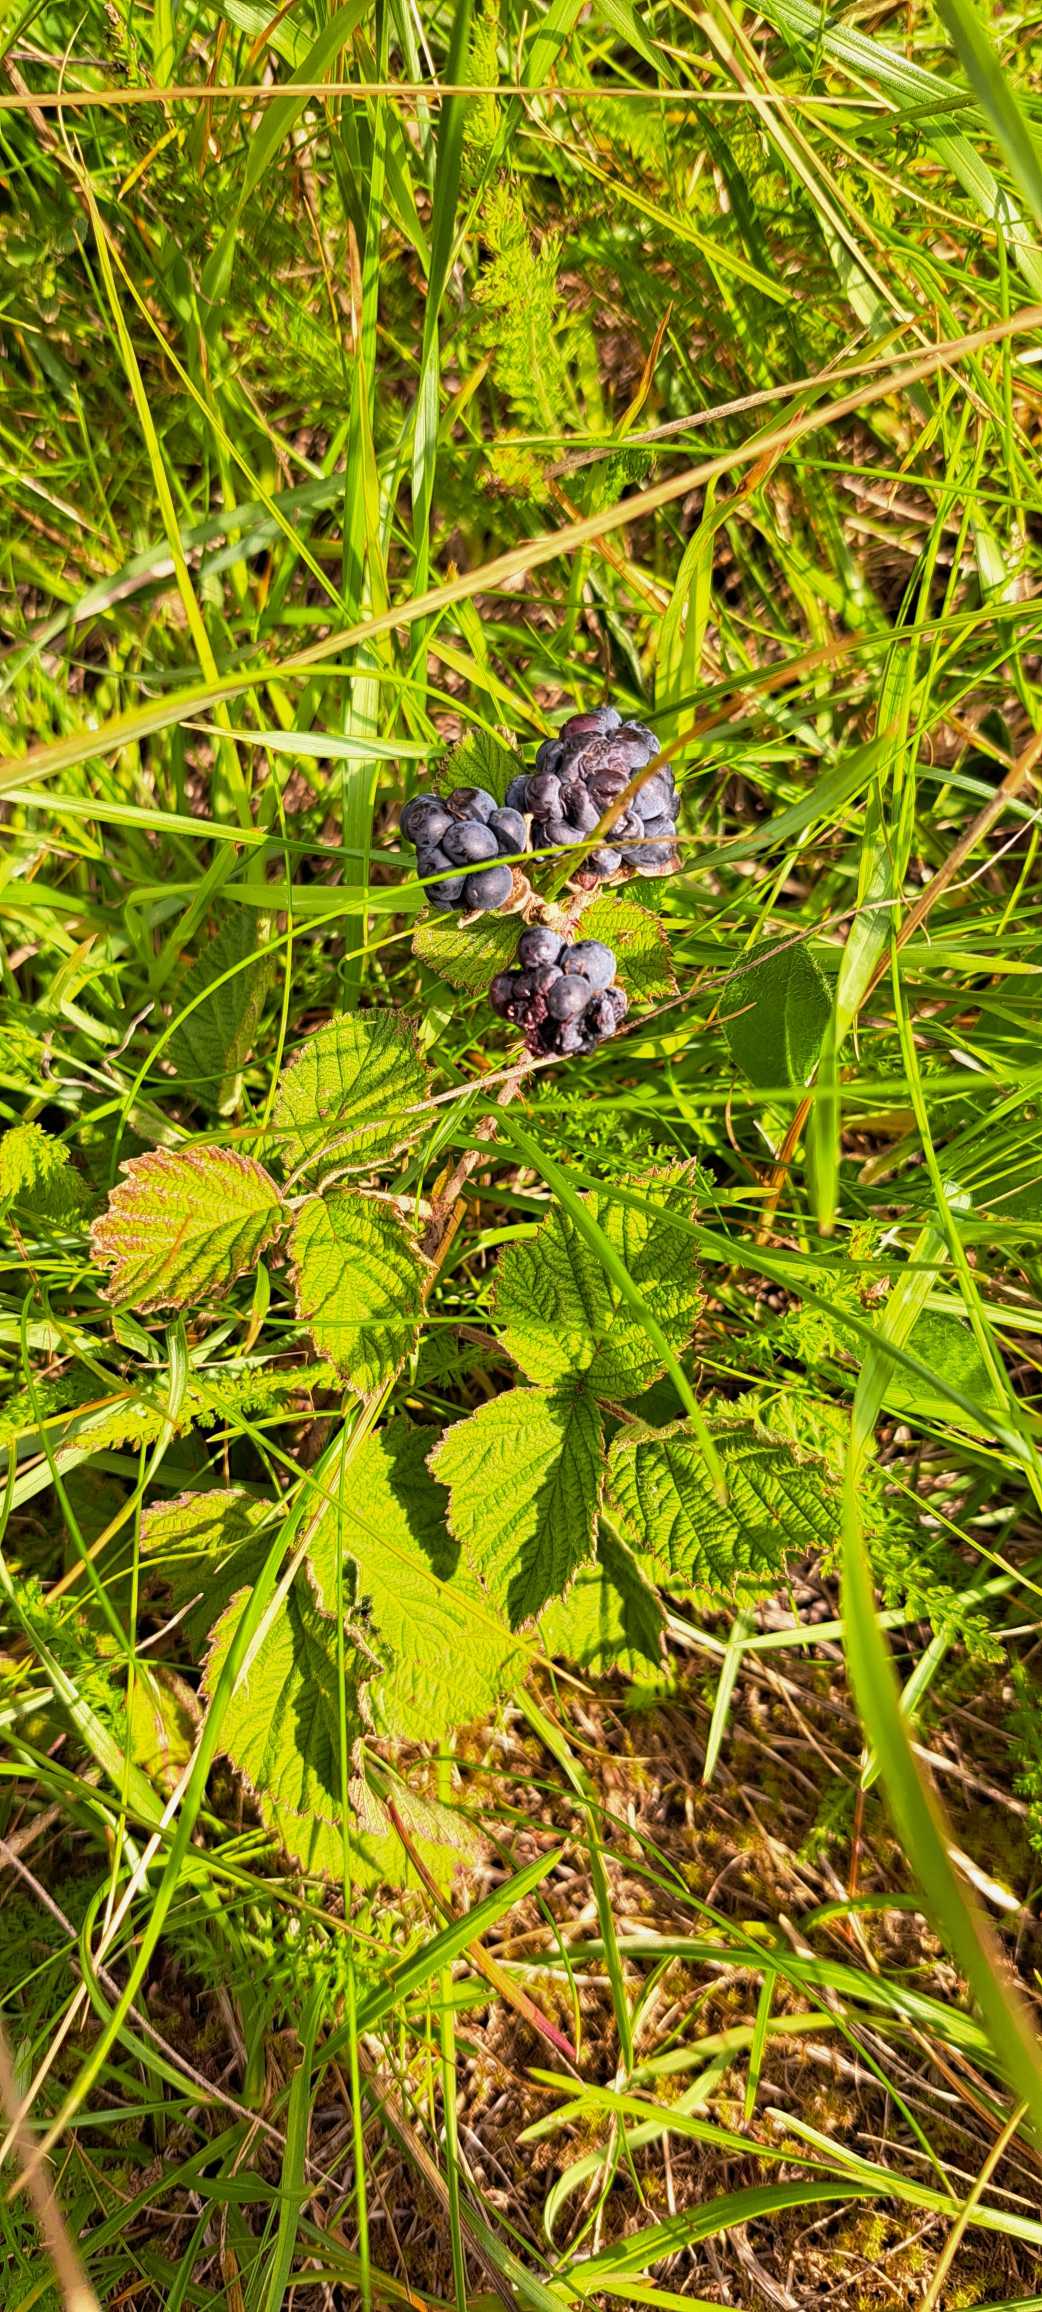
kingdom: Plantae
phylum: Tracheophyta
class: Magnoliopsida
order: Rosales
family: Rosaceae
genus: Rubus
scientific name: Rubus
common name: Klyngerslægten
